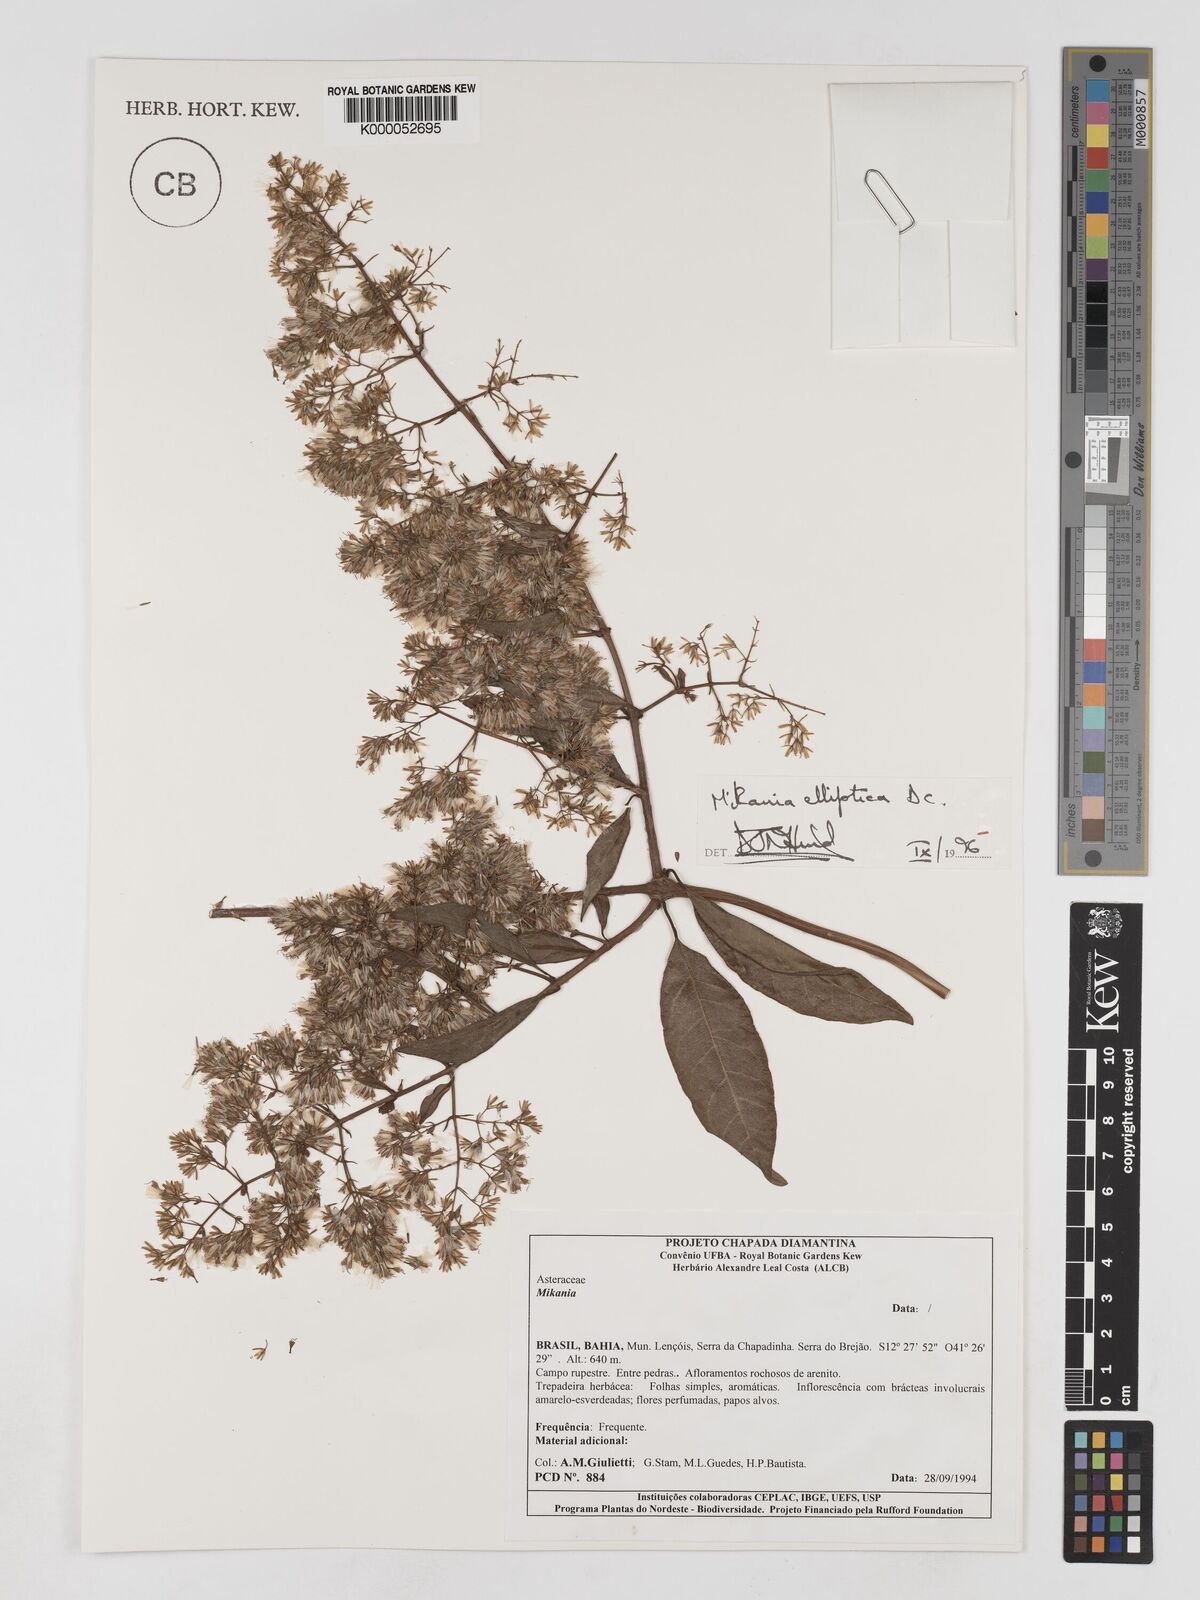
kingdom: Plantae
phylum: Tracheophyta
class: Magnoliopsida
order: Asterales
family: Asteraceae
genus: Mikania
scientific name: Mikania elliptica
